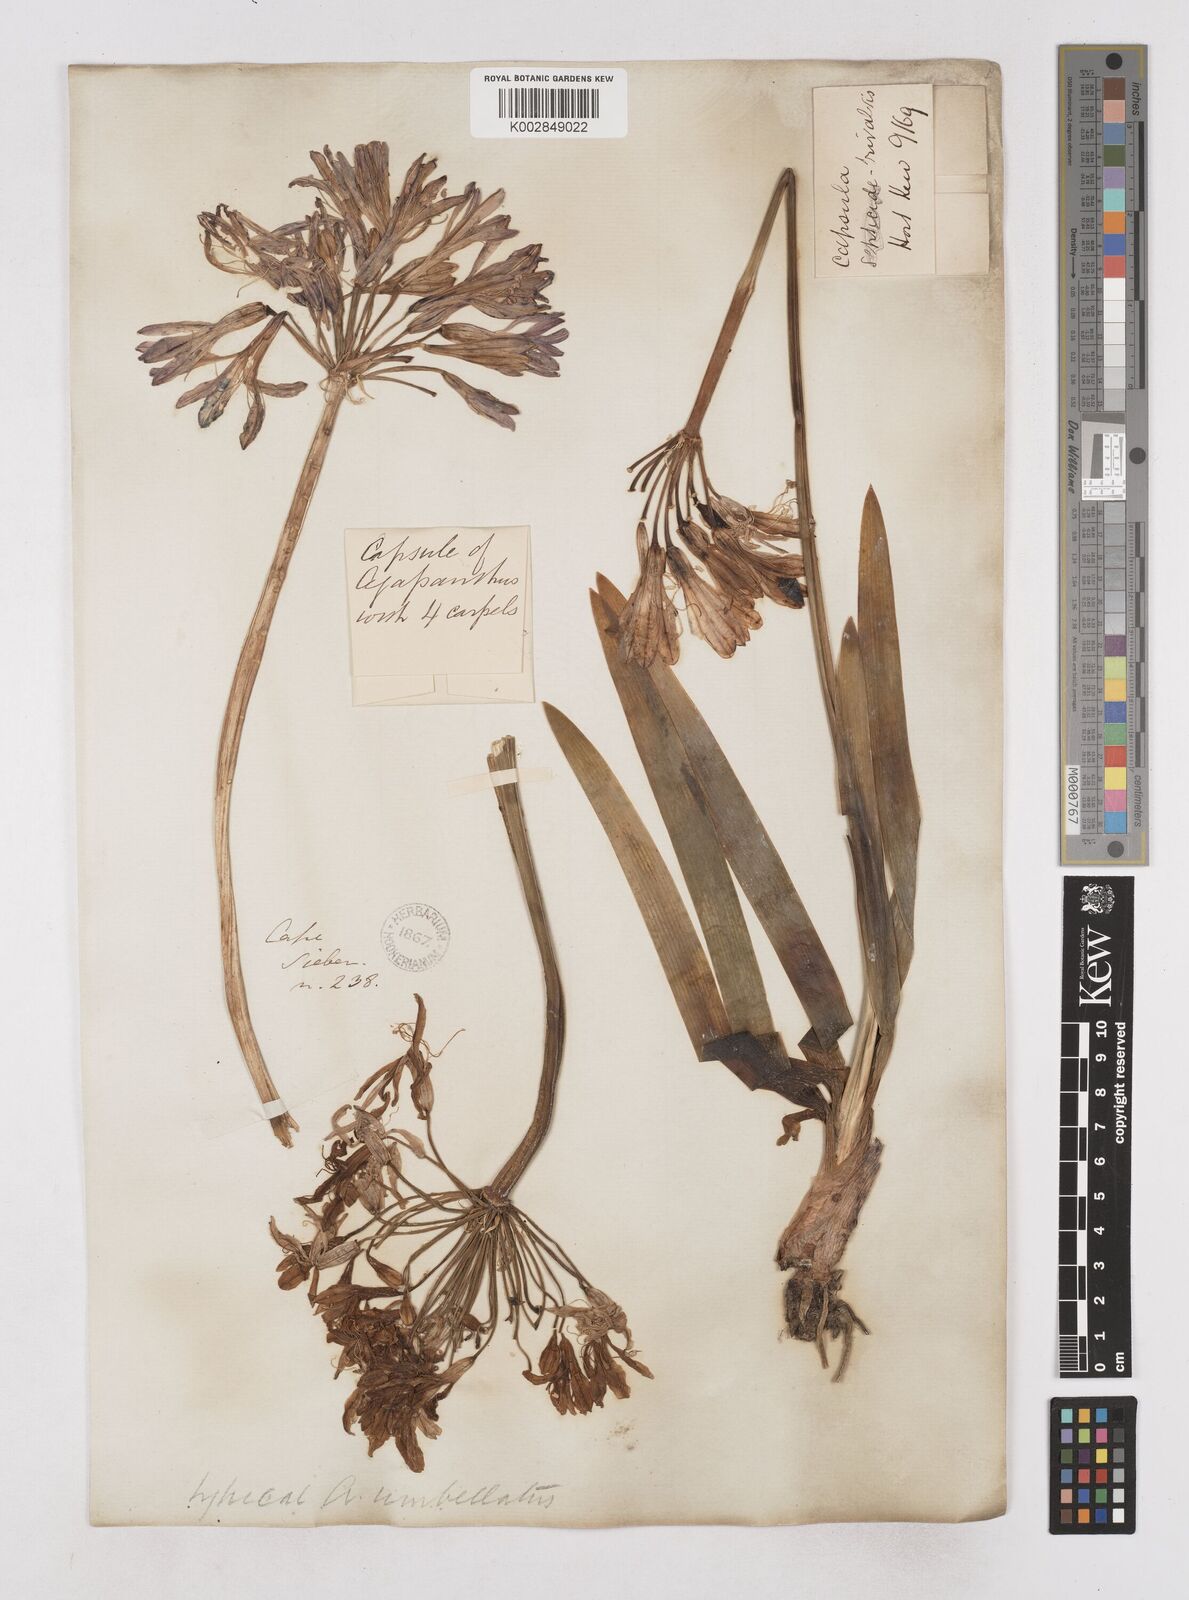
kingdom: Plantae
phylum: Tracheophyta
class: Liliopsida
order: Asparagales
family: Amaryllidaceae
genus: Agapanthus
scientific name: Agapanthus africanus
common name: Lily-of-the-nile
